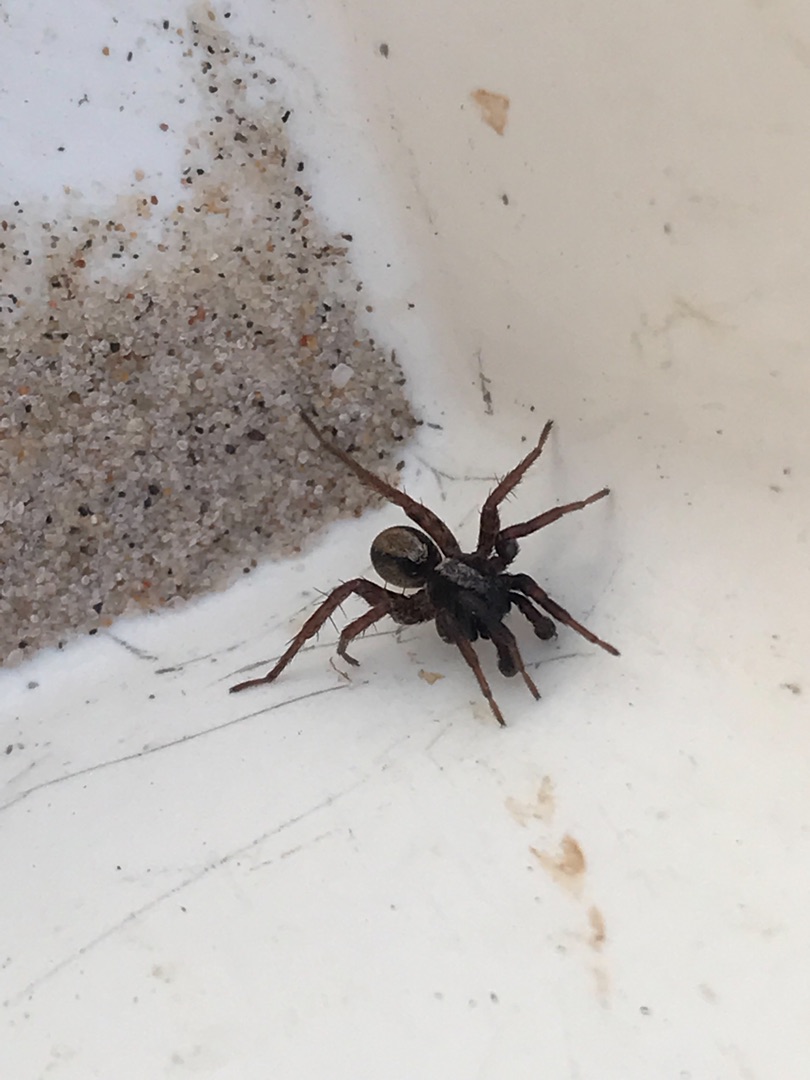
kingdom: Animalia
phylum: Arthropoda
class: Arachnida
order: Araneae
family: Lycosidae
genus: Alopecosa
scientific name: Alopecosa pulverulenta
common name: Kilekæmpejæger
